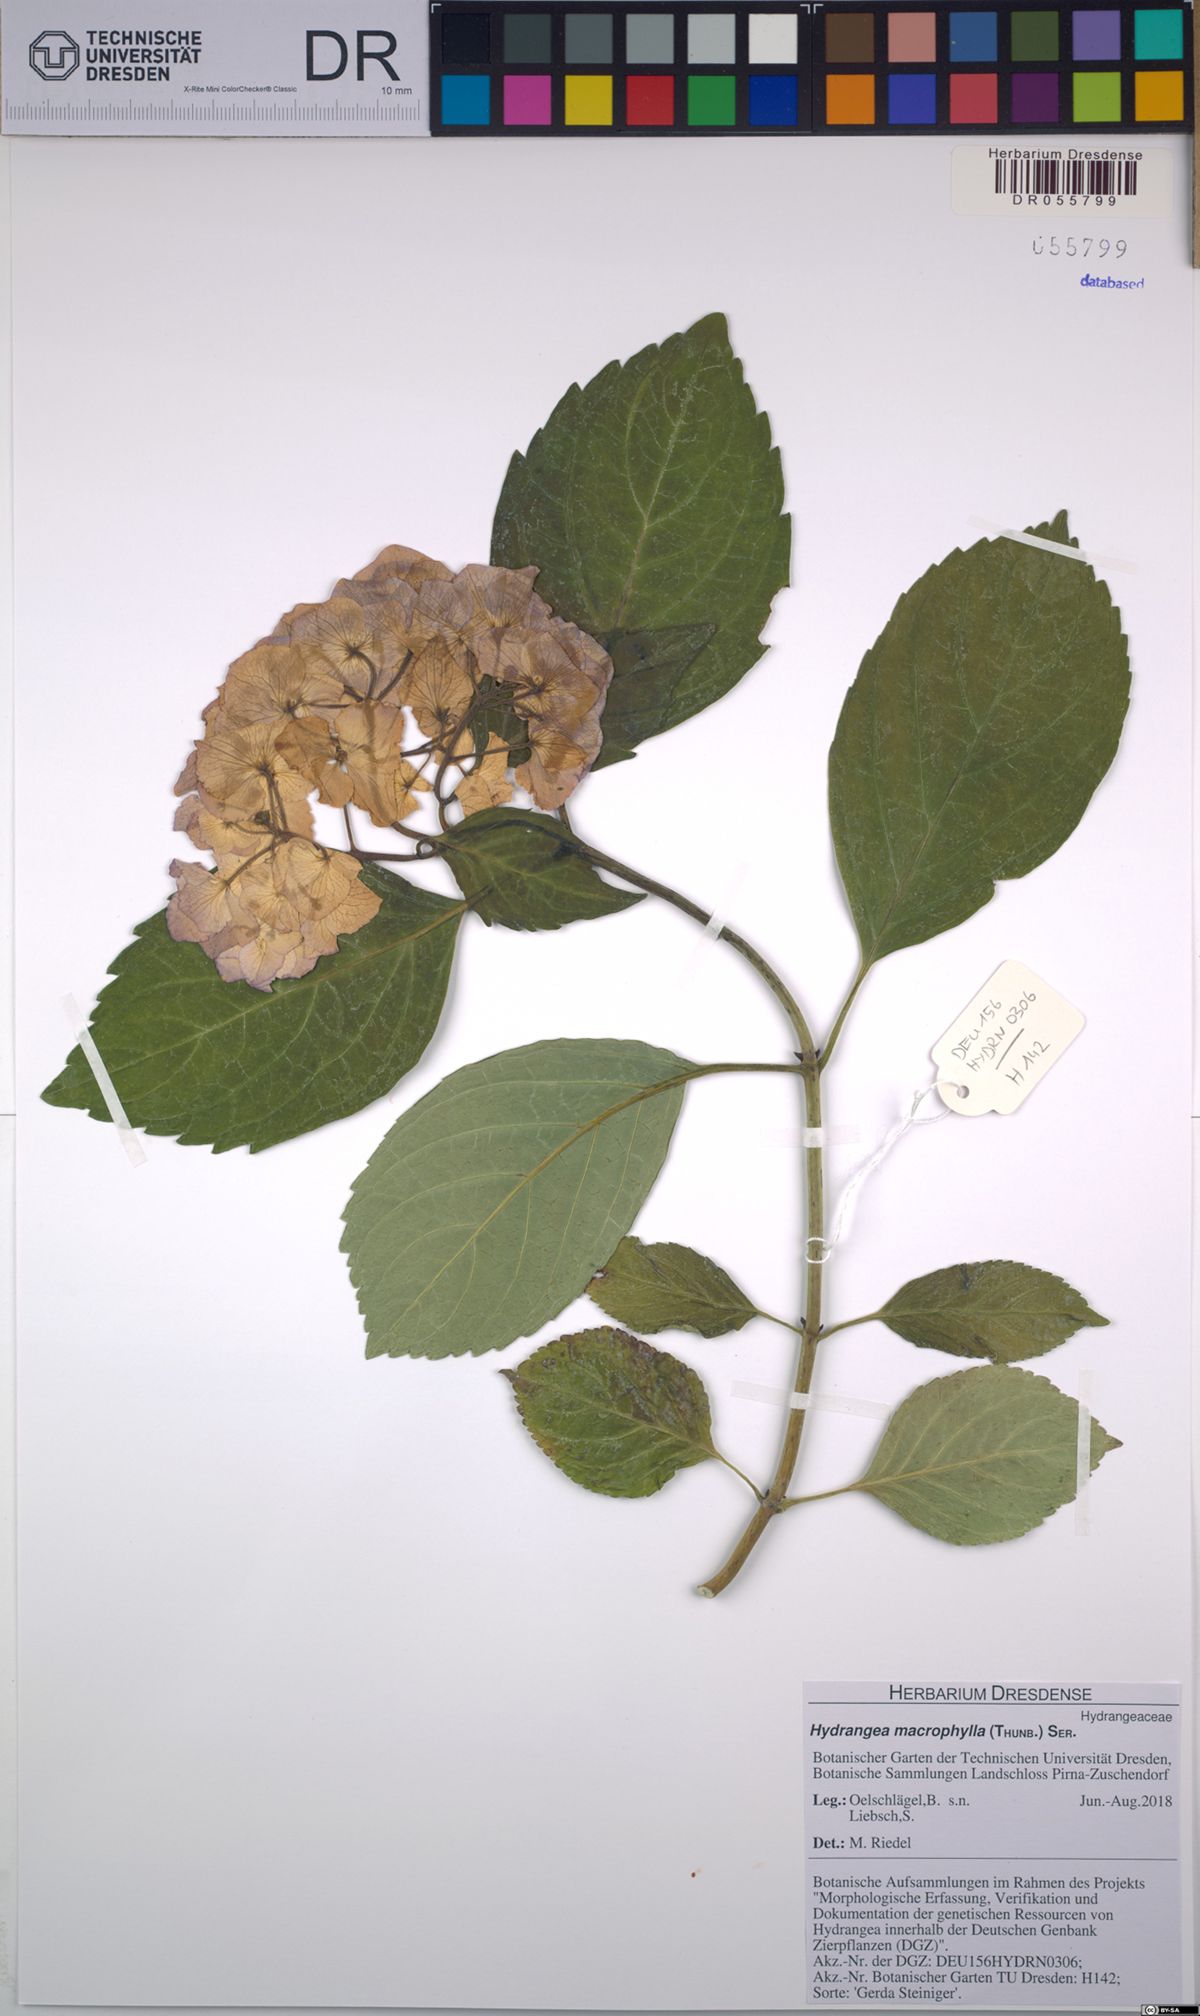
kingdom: Plantae
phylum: Tracheophyta
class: Magnoliopsida
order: Cornales
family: Hydrangeaceae
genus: Hydrangea
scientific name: Hydrangea macrophylla
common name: Hydrangea
